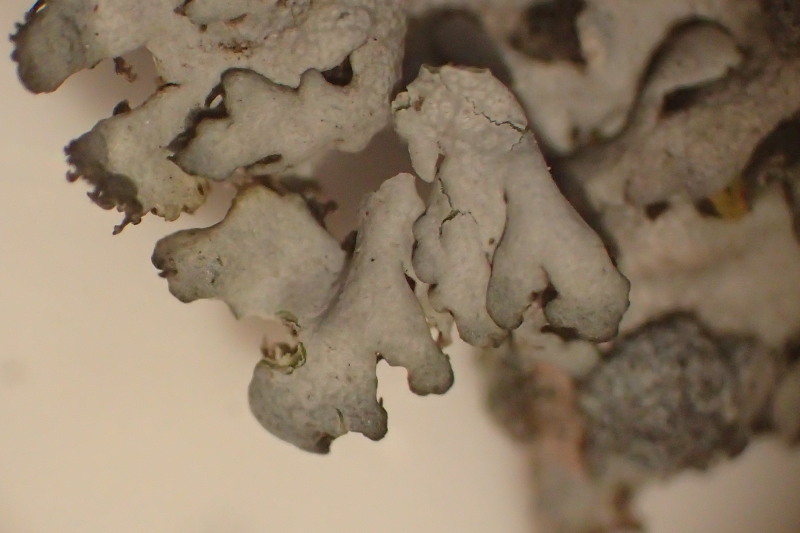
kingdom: Fungi
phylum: Ascomycota
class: Lecanoromycetes
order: Caliciales
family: Physciaceae
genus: Physcia
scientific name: Physcia caesia
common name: blågrå rosetlav
